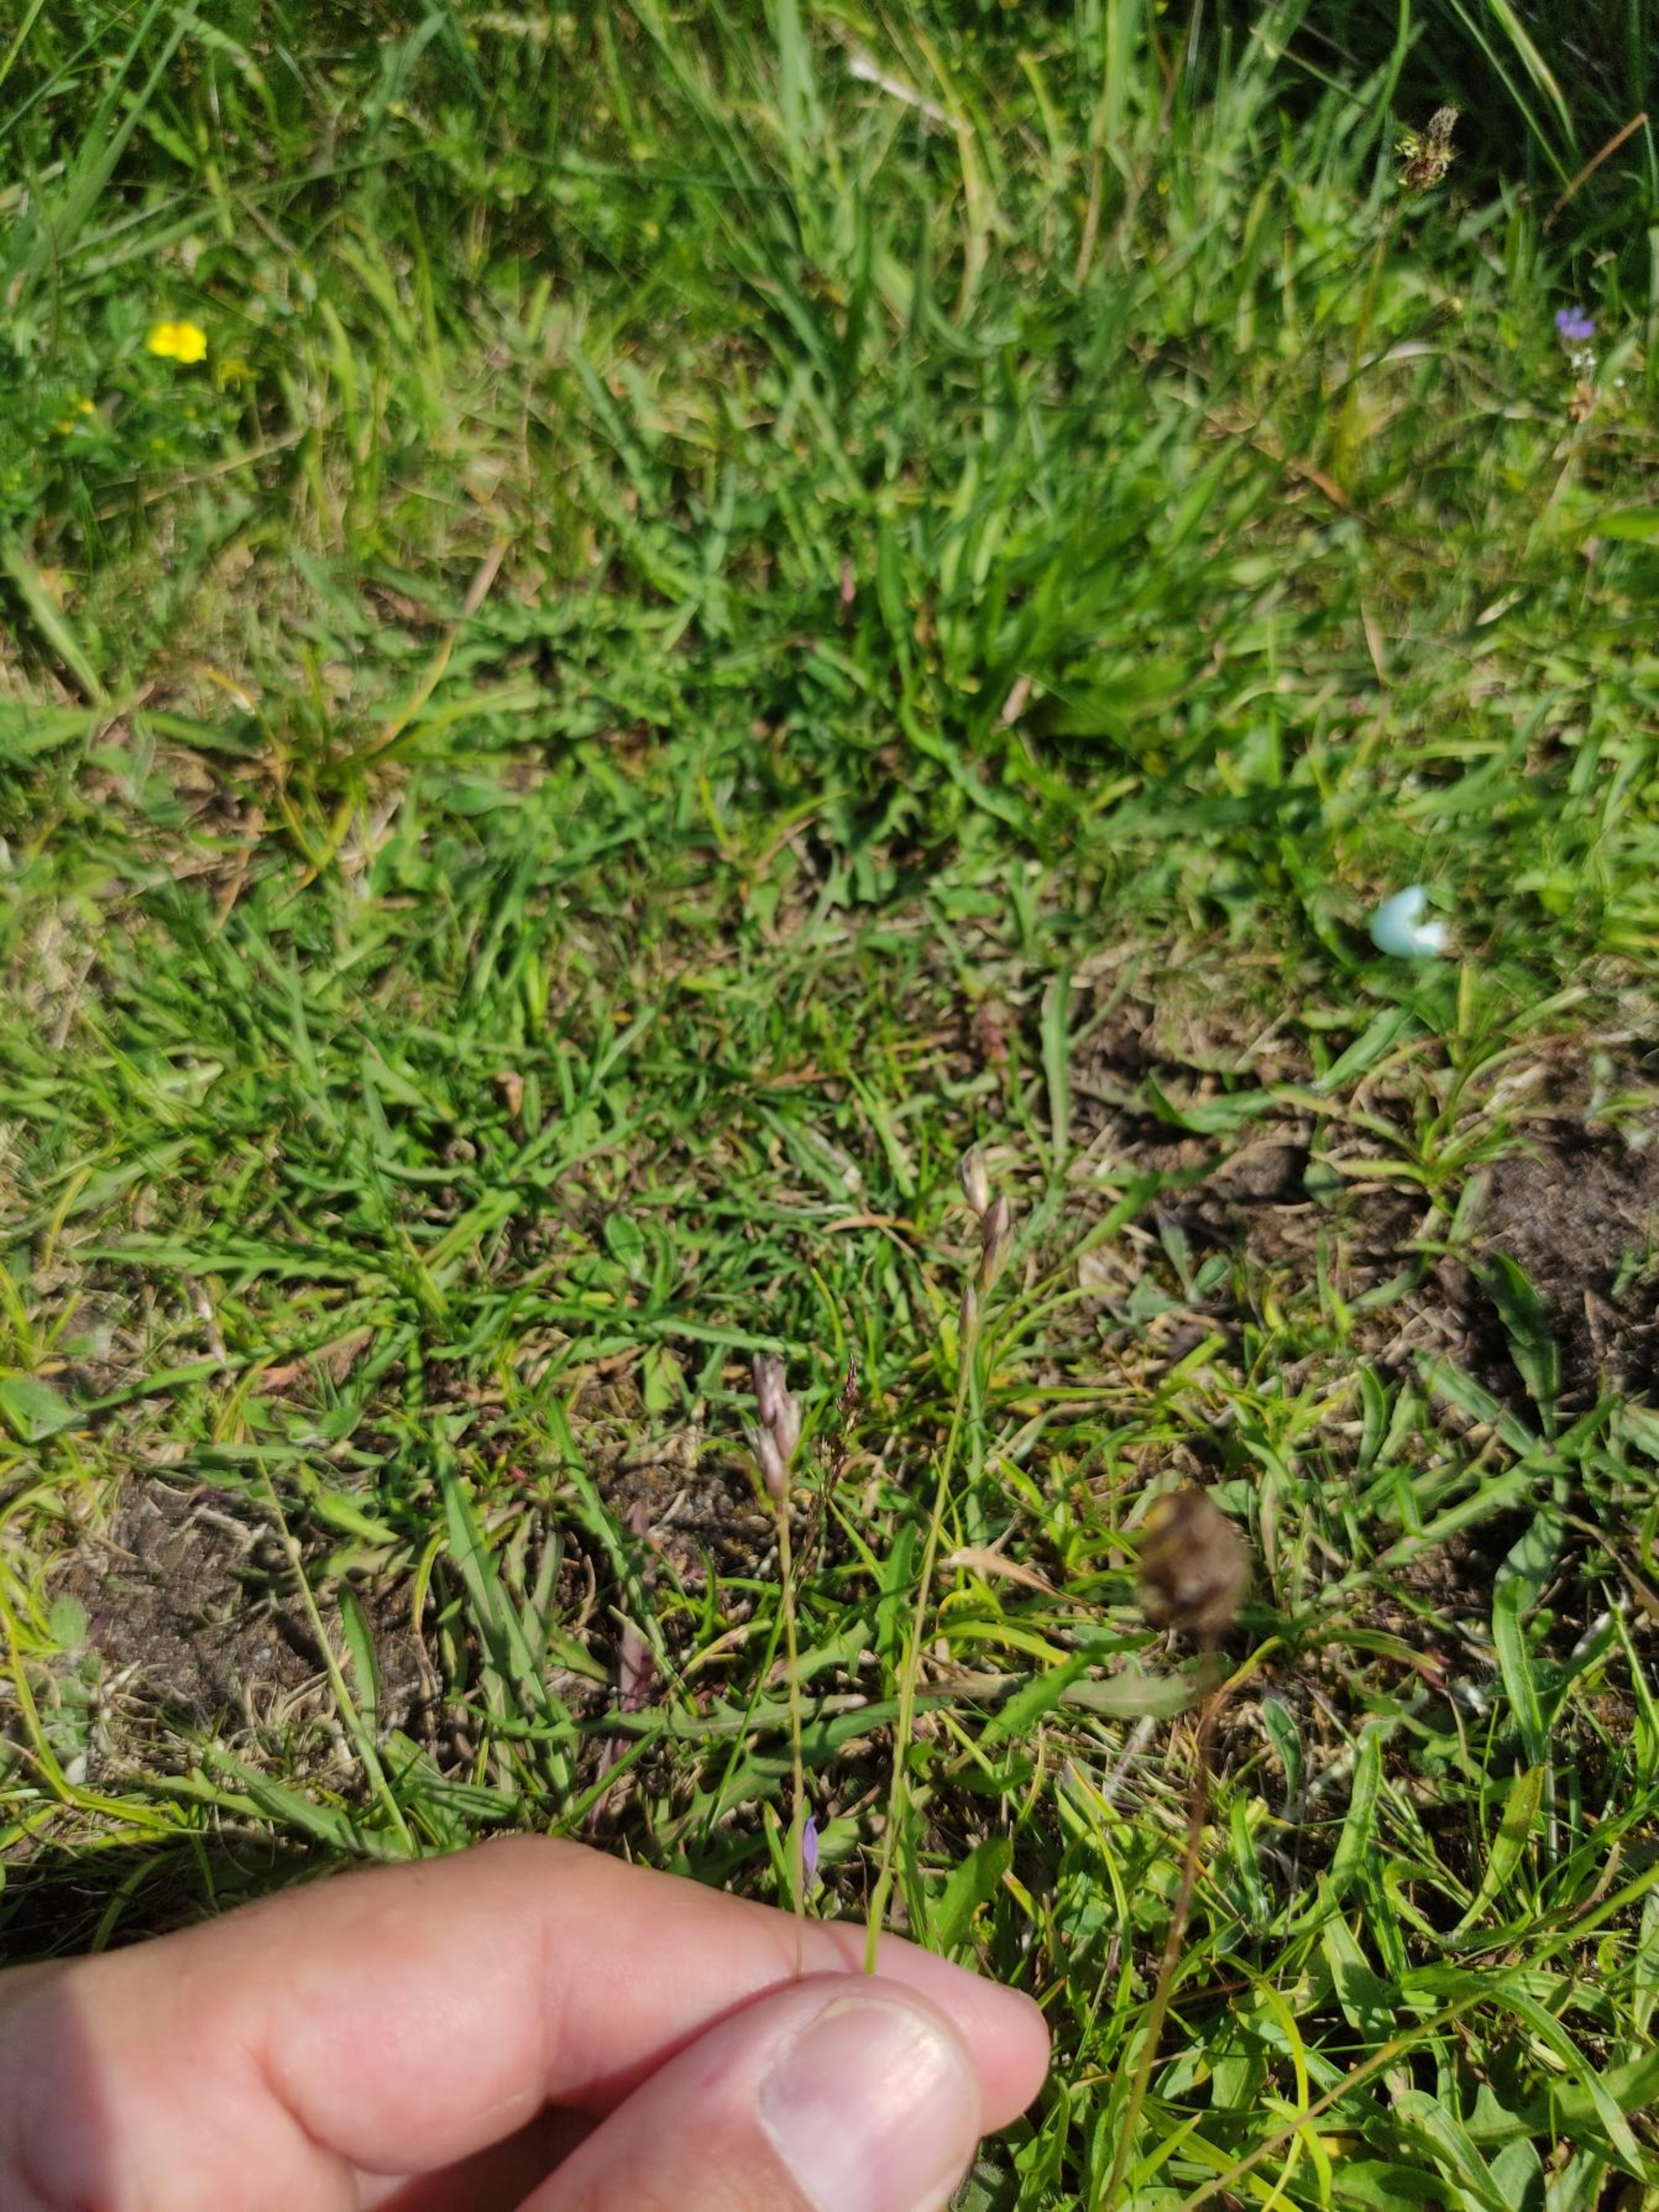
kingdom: Plantae
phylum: Tracheophyta
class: Liliopsida
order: Poales
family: Poaceae
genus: Danthonia
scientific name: Danthonia decumbens
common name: Tandbælg
